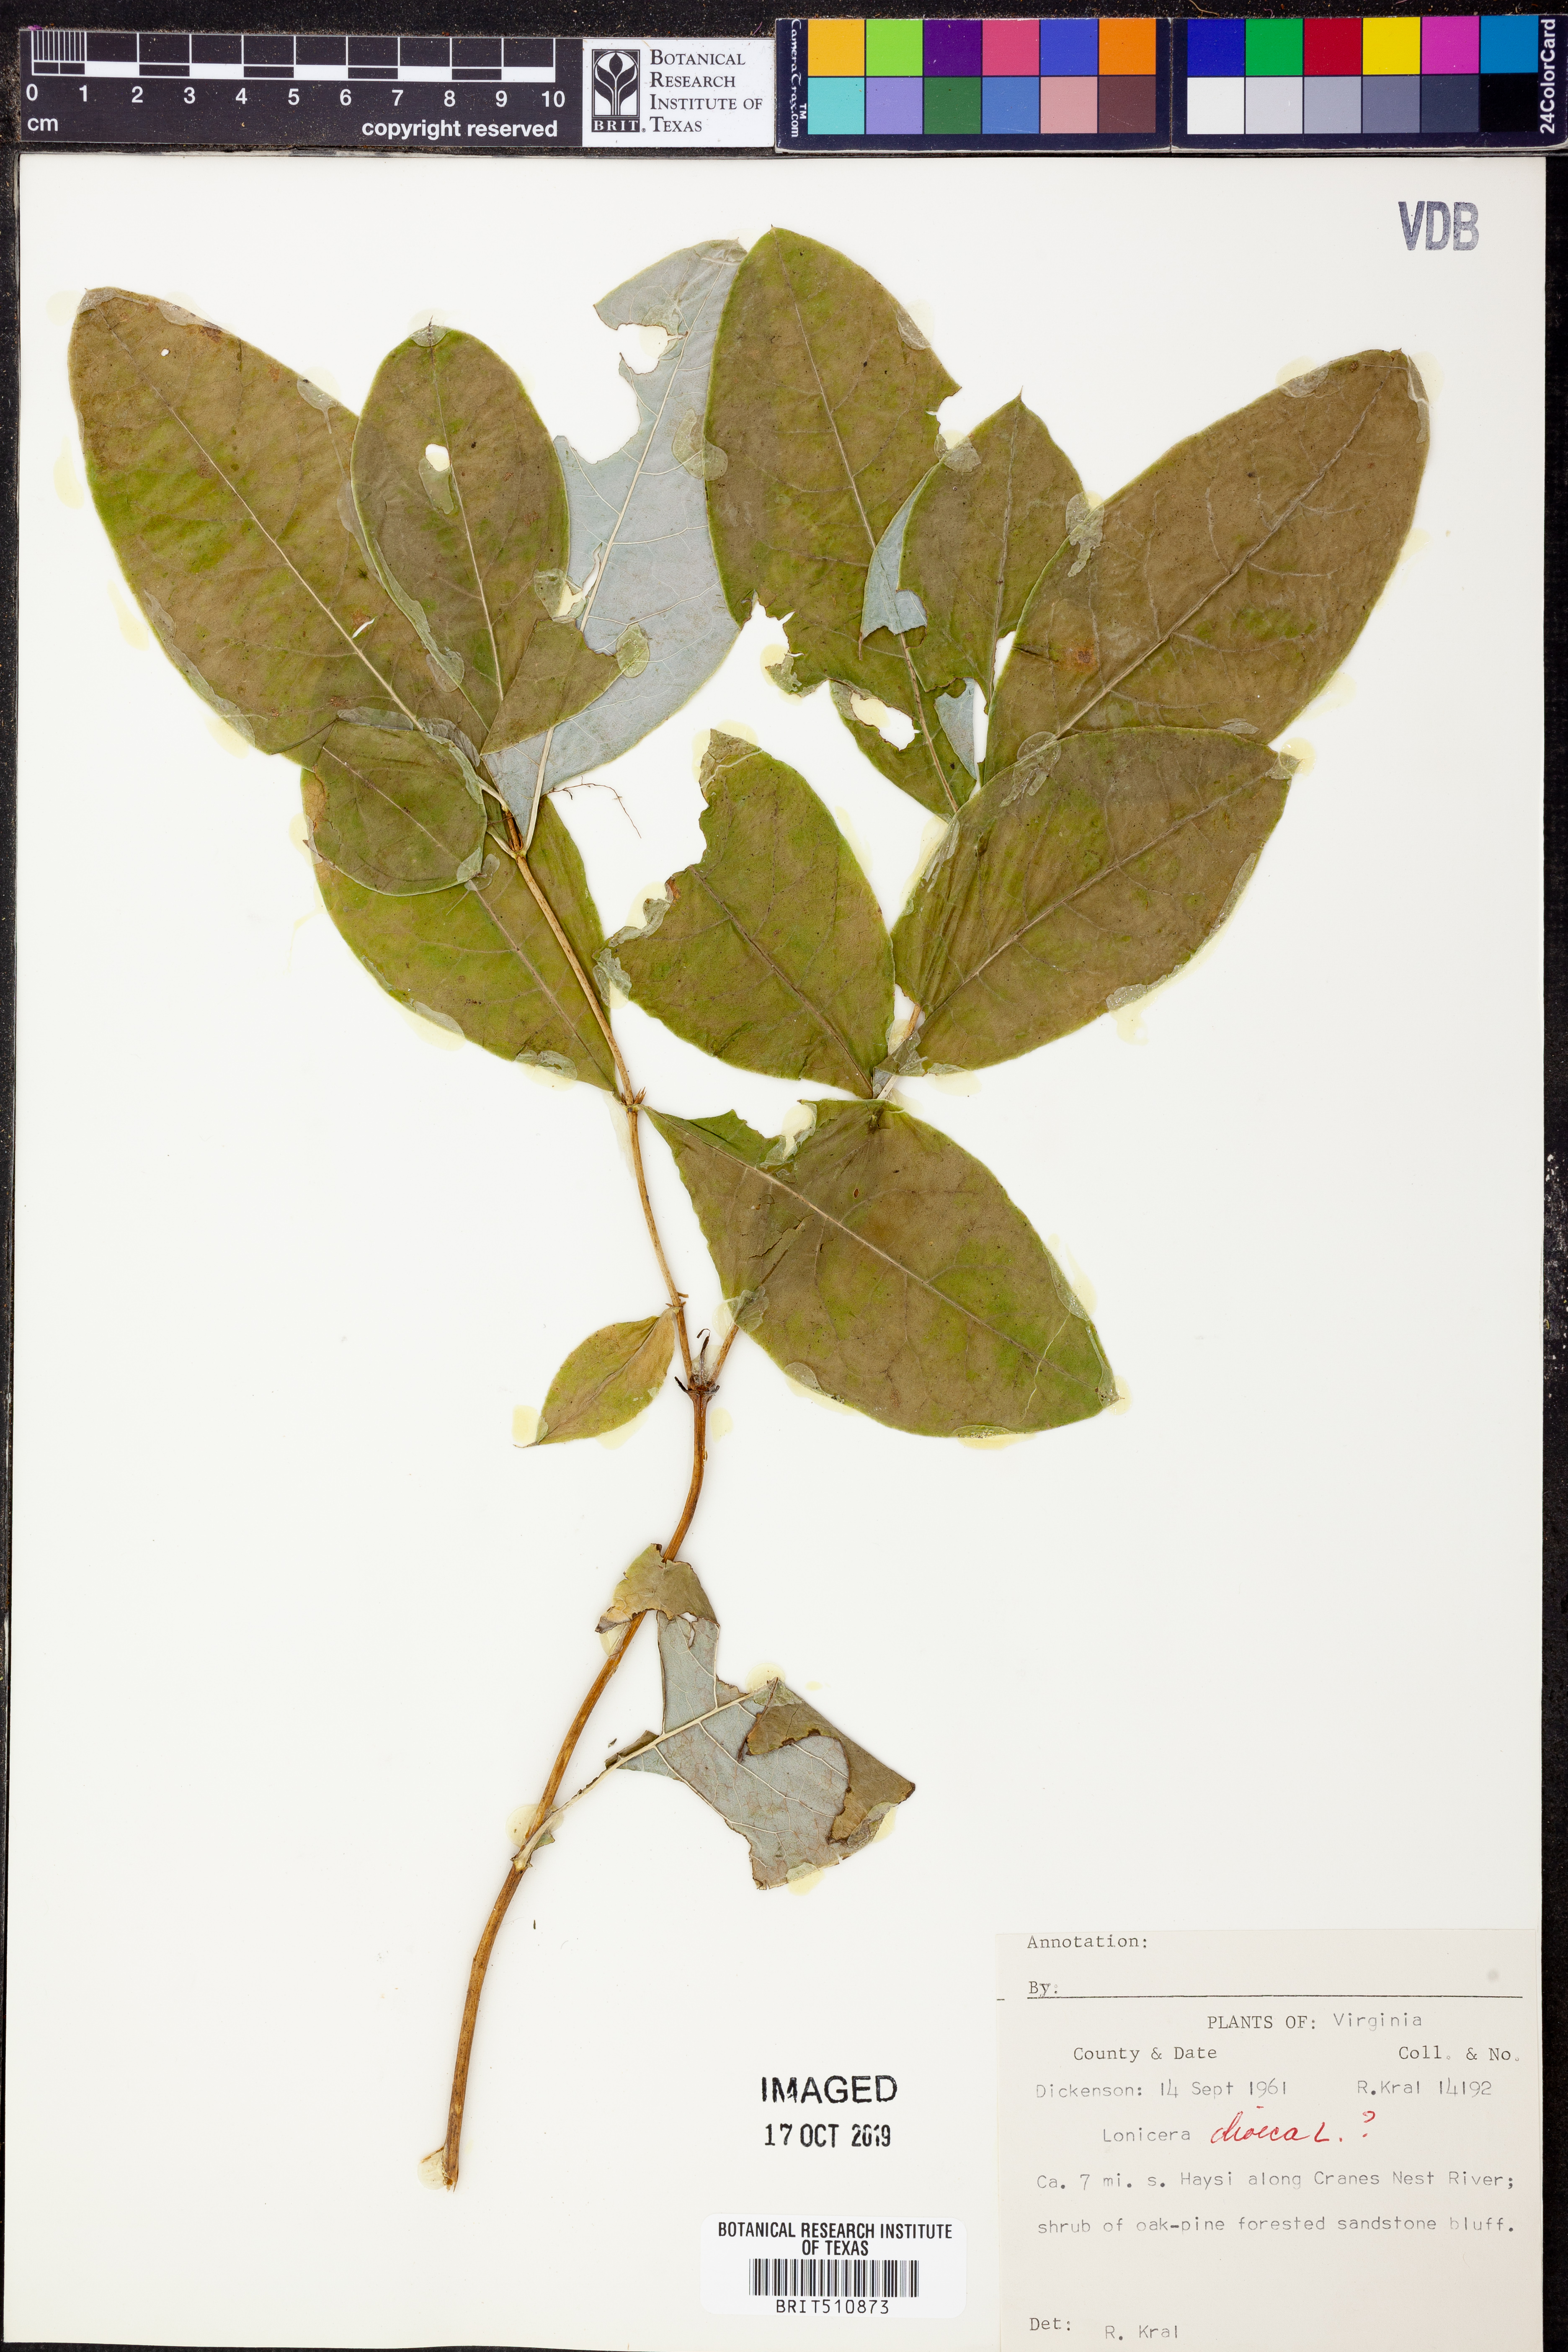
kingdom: Plantae
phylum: Tracheophyta
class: Magnoliopsida
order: Dipsacales
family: Caprifoliaceae
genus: Lonicera
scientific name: Lonicera dioica
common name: Limber honeysuckle
